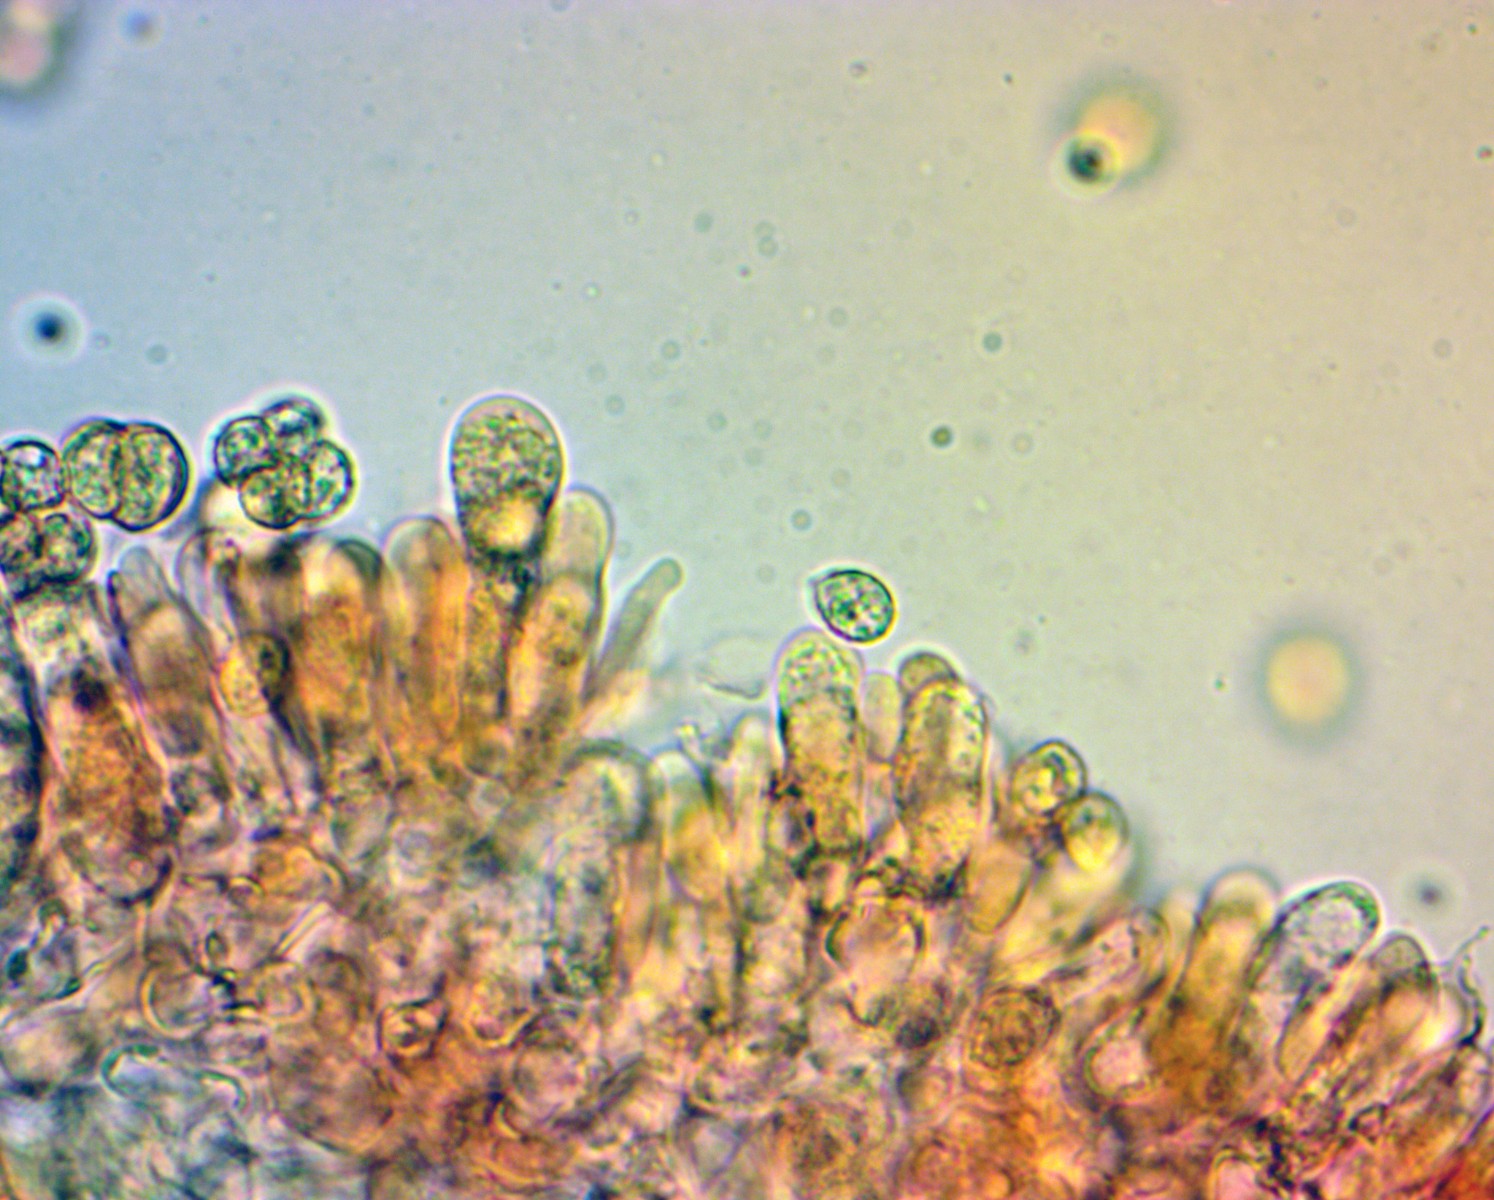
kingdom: Fungi
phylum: Basidiomycota
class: Agaricomycetes
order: Agaricales
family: Crepidotaceae
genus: Crepidotus
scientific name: Crepidotus caspari
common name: Lundells muslingesvamp
